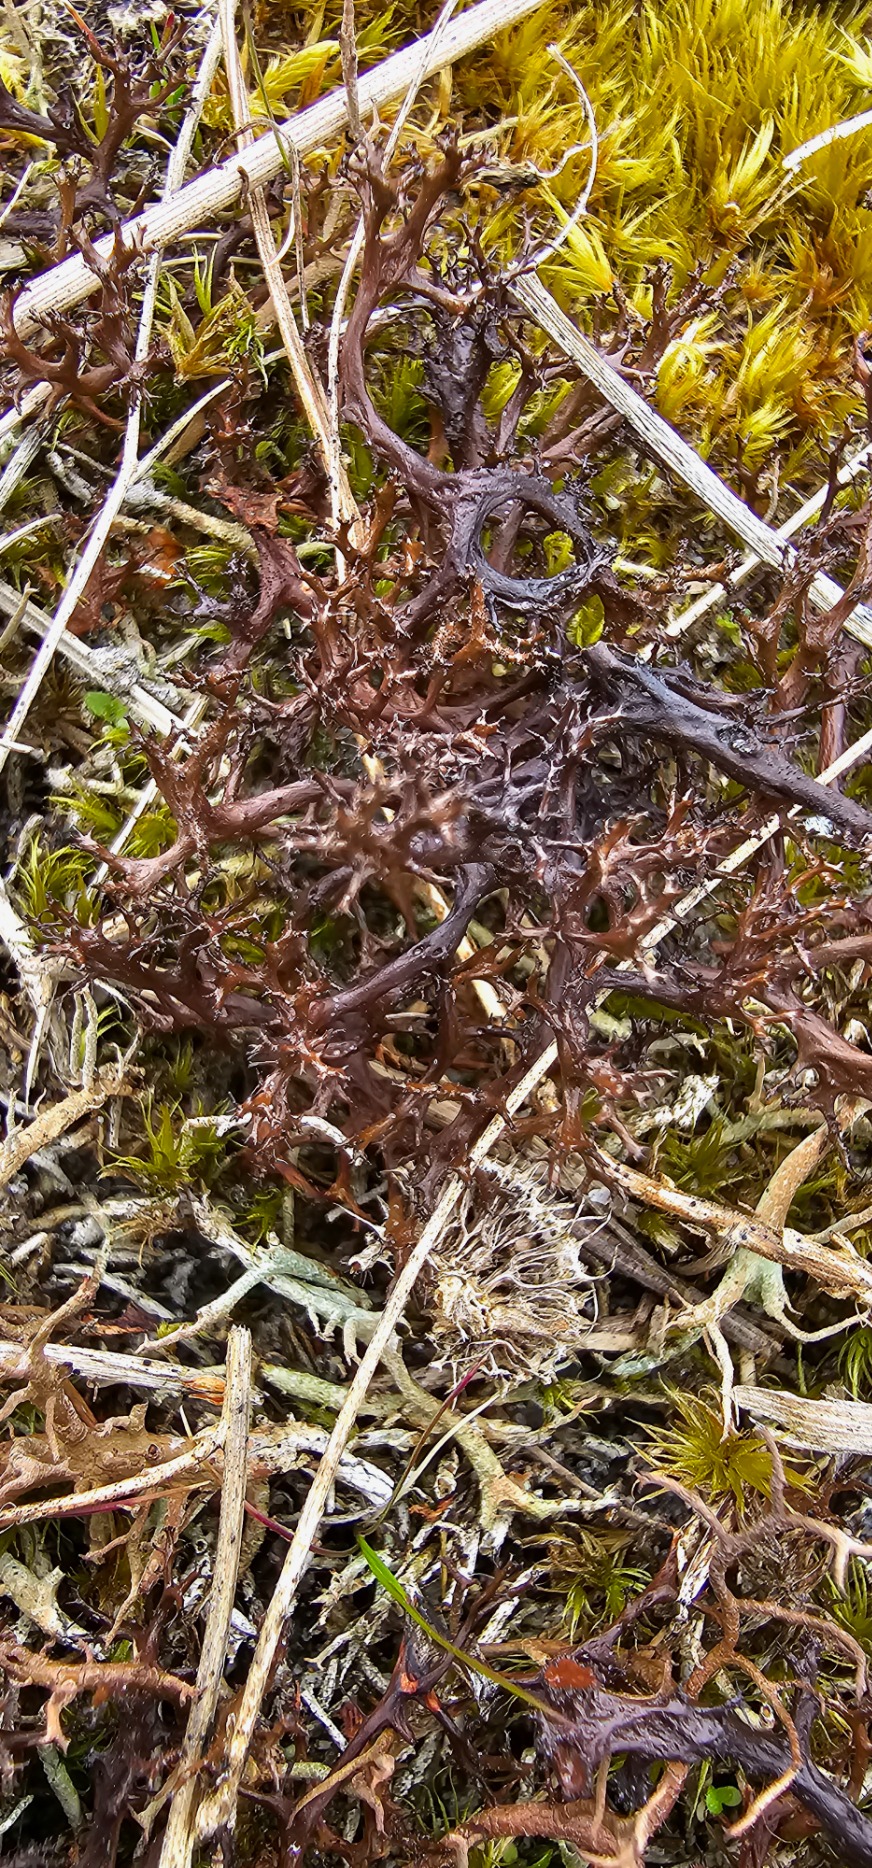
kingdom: Fungi
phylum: Ascomycota
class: Lecanoromycetes
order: Lecanorales
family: Parmeliaceae
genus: Cetraria
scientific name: Cetraria aculeata
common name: Grubet tjørnelav
